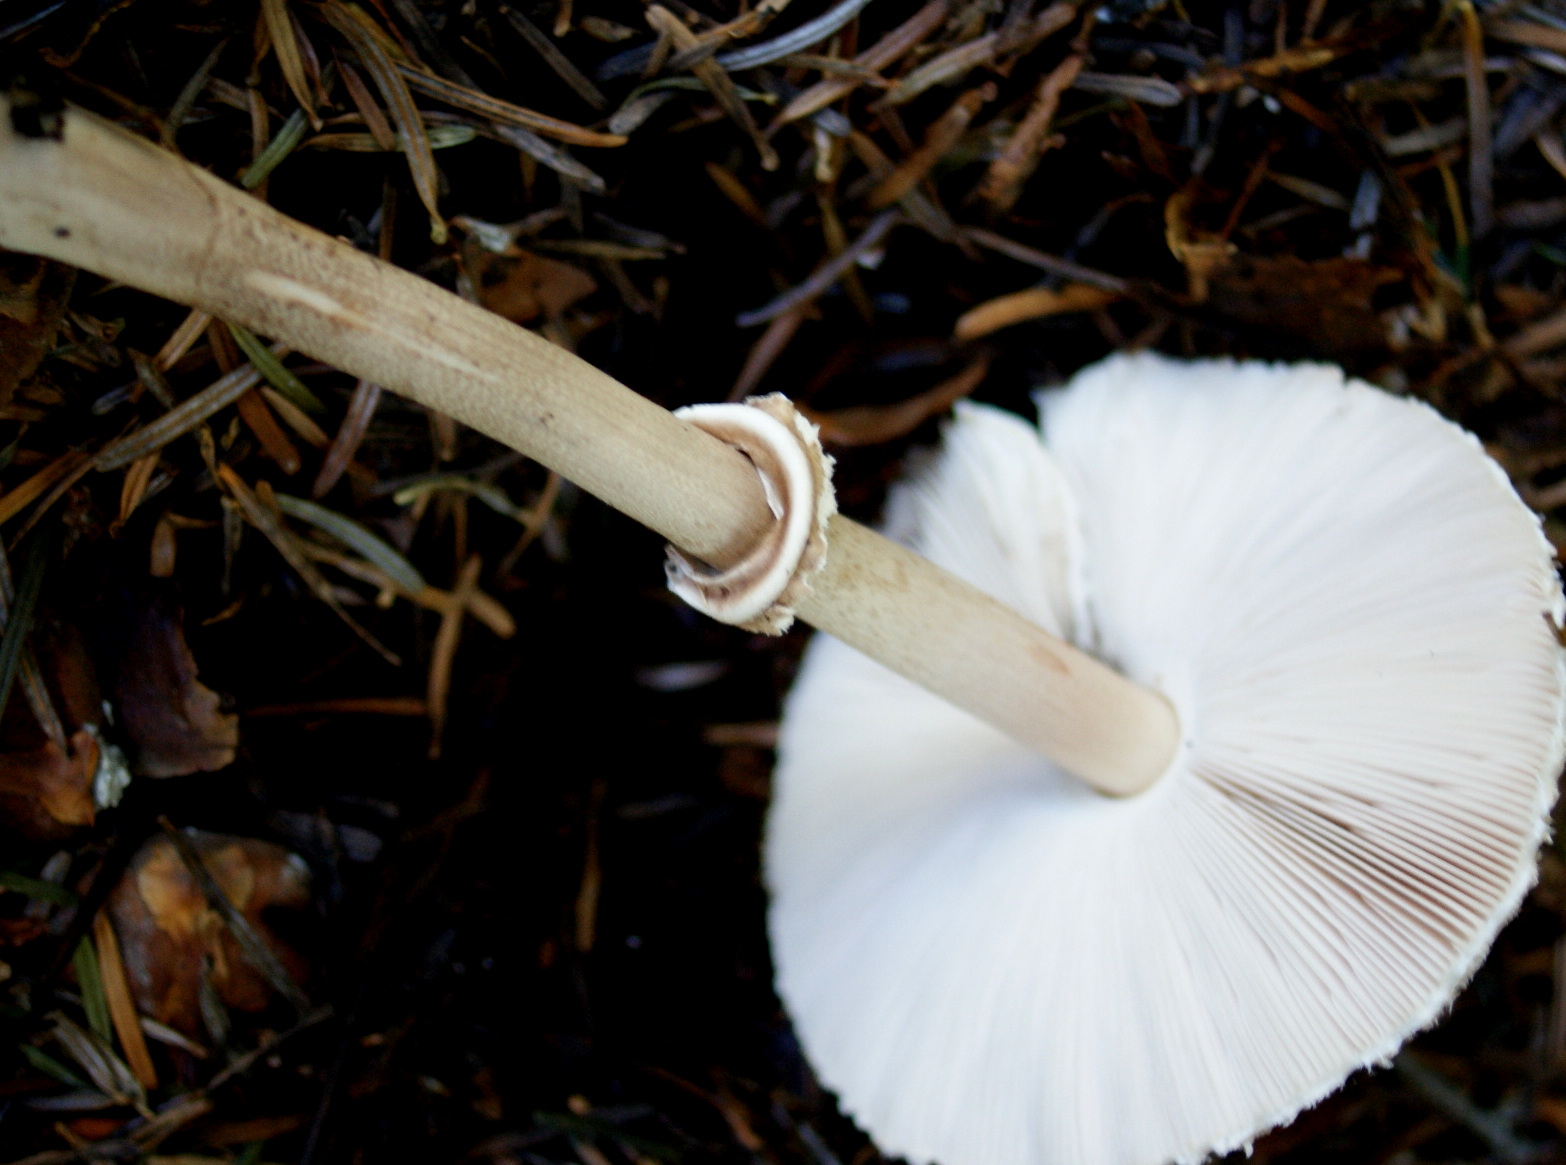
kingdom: Fungi
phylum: Basidiomycota
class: Agaricomycetes
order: Agaricales
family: Agaricaceae
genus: Macrolepiota
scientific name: Macrolepiota mastoidea
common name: puklet kæmpeparasolhat
